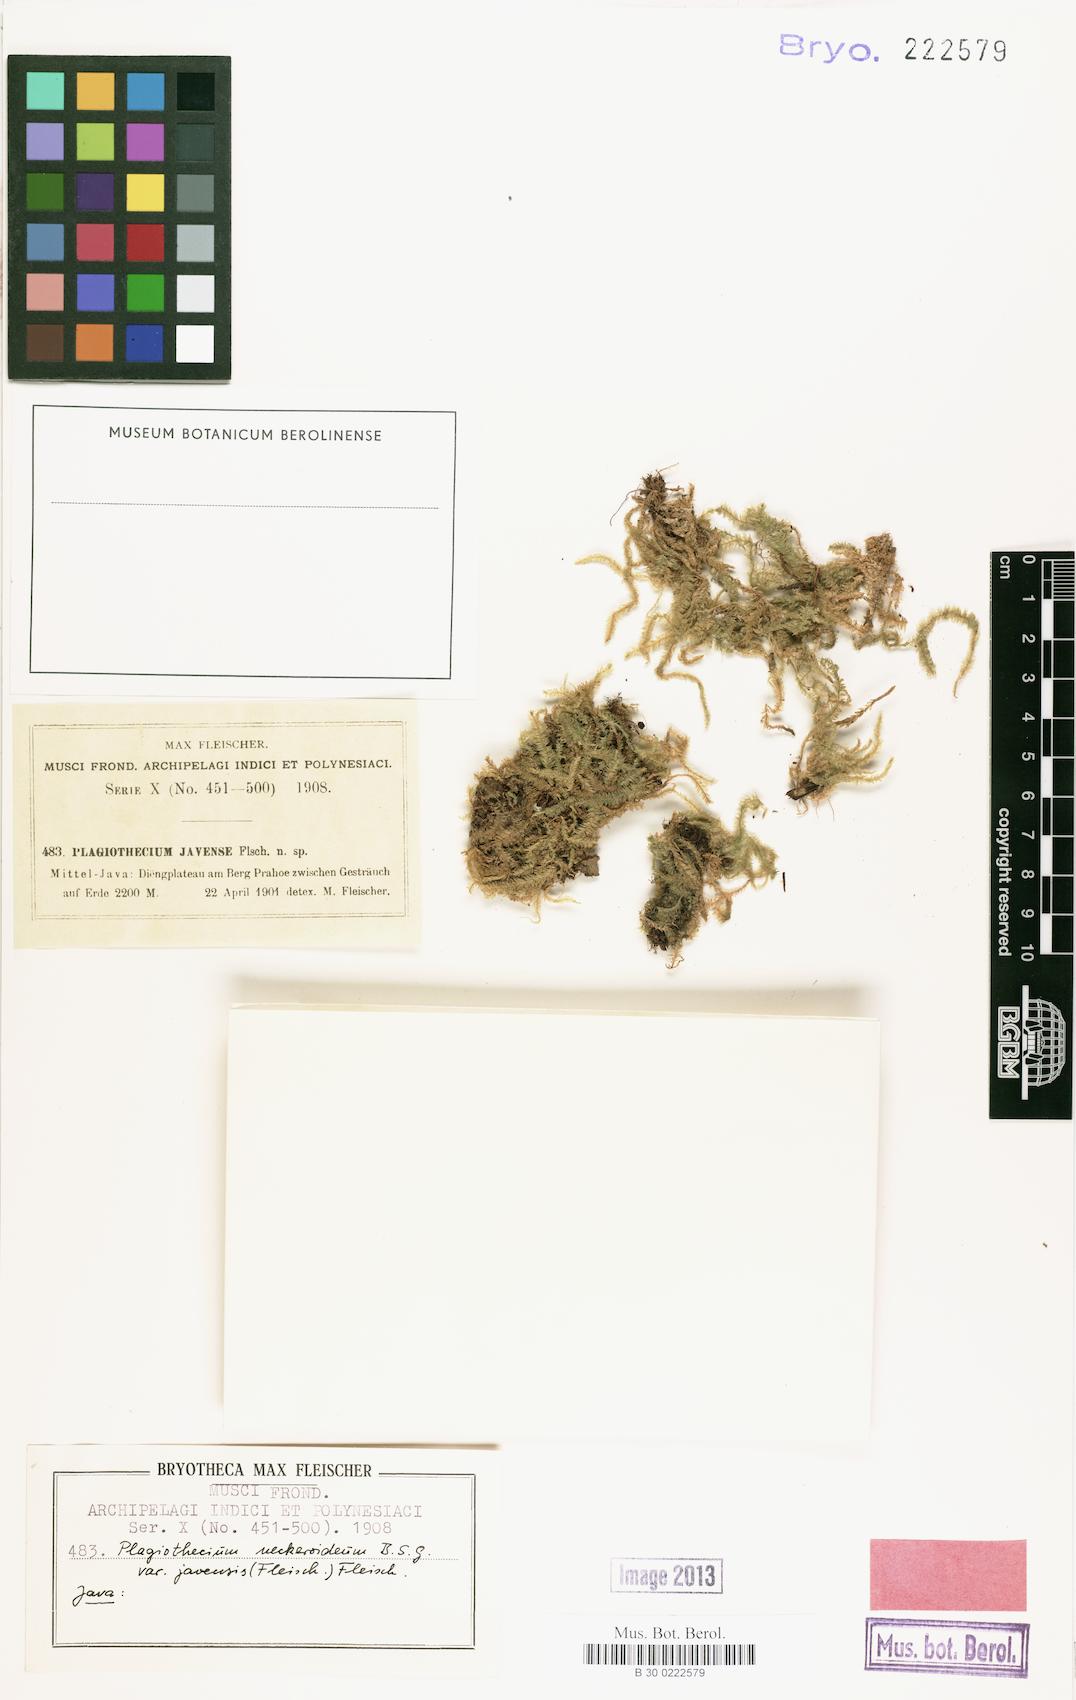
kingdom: Plantae
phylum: Bryophyta
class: Bryopsida
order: Hypnales
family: Plagiotheciaceae
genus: Plagiothecium
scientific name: Plagiothecium neckeroideum
